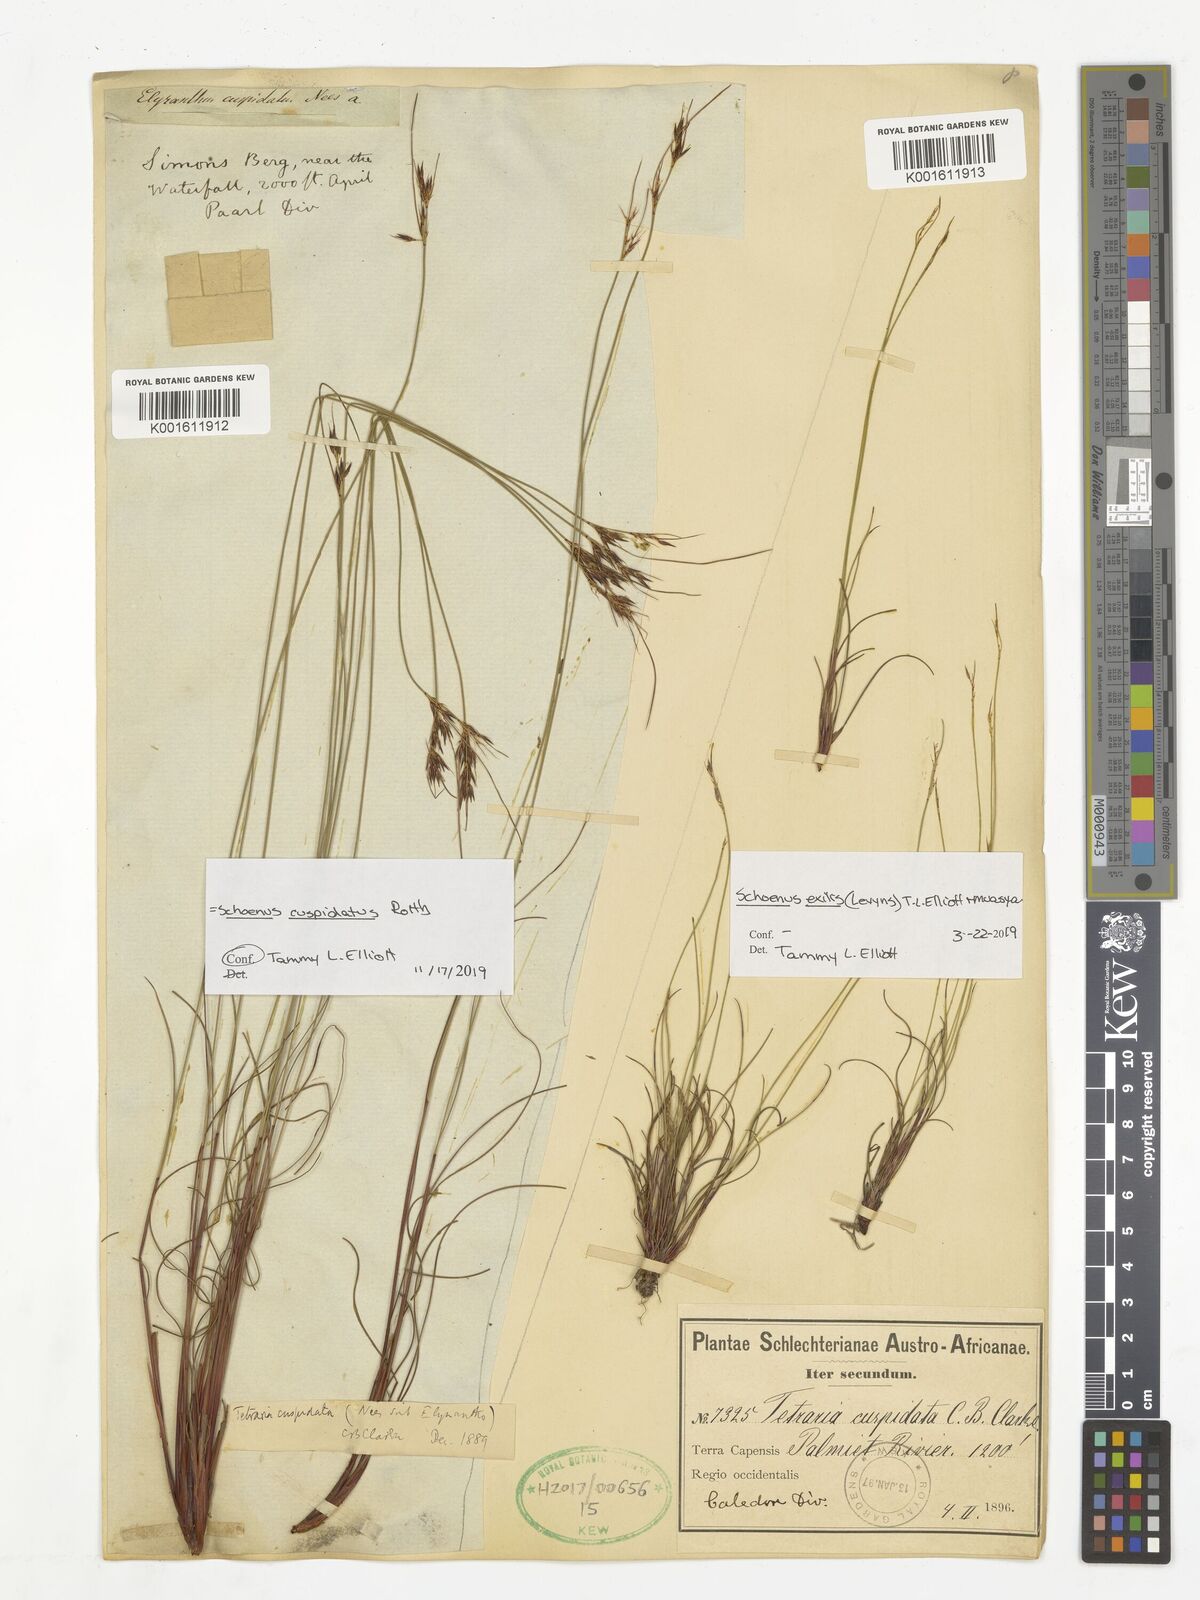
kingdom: Plantae
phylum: Tracheophyta
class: Liliopsida
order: Poales
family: Cyperaceae
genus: Schoenus
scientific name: Schoenus cuspidatus
